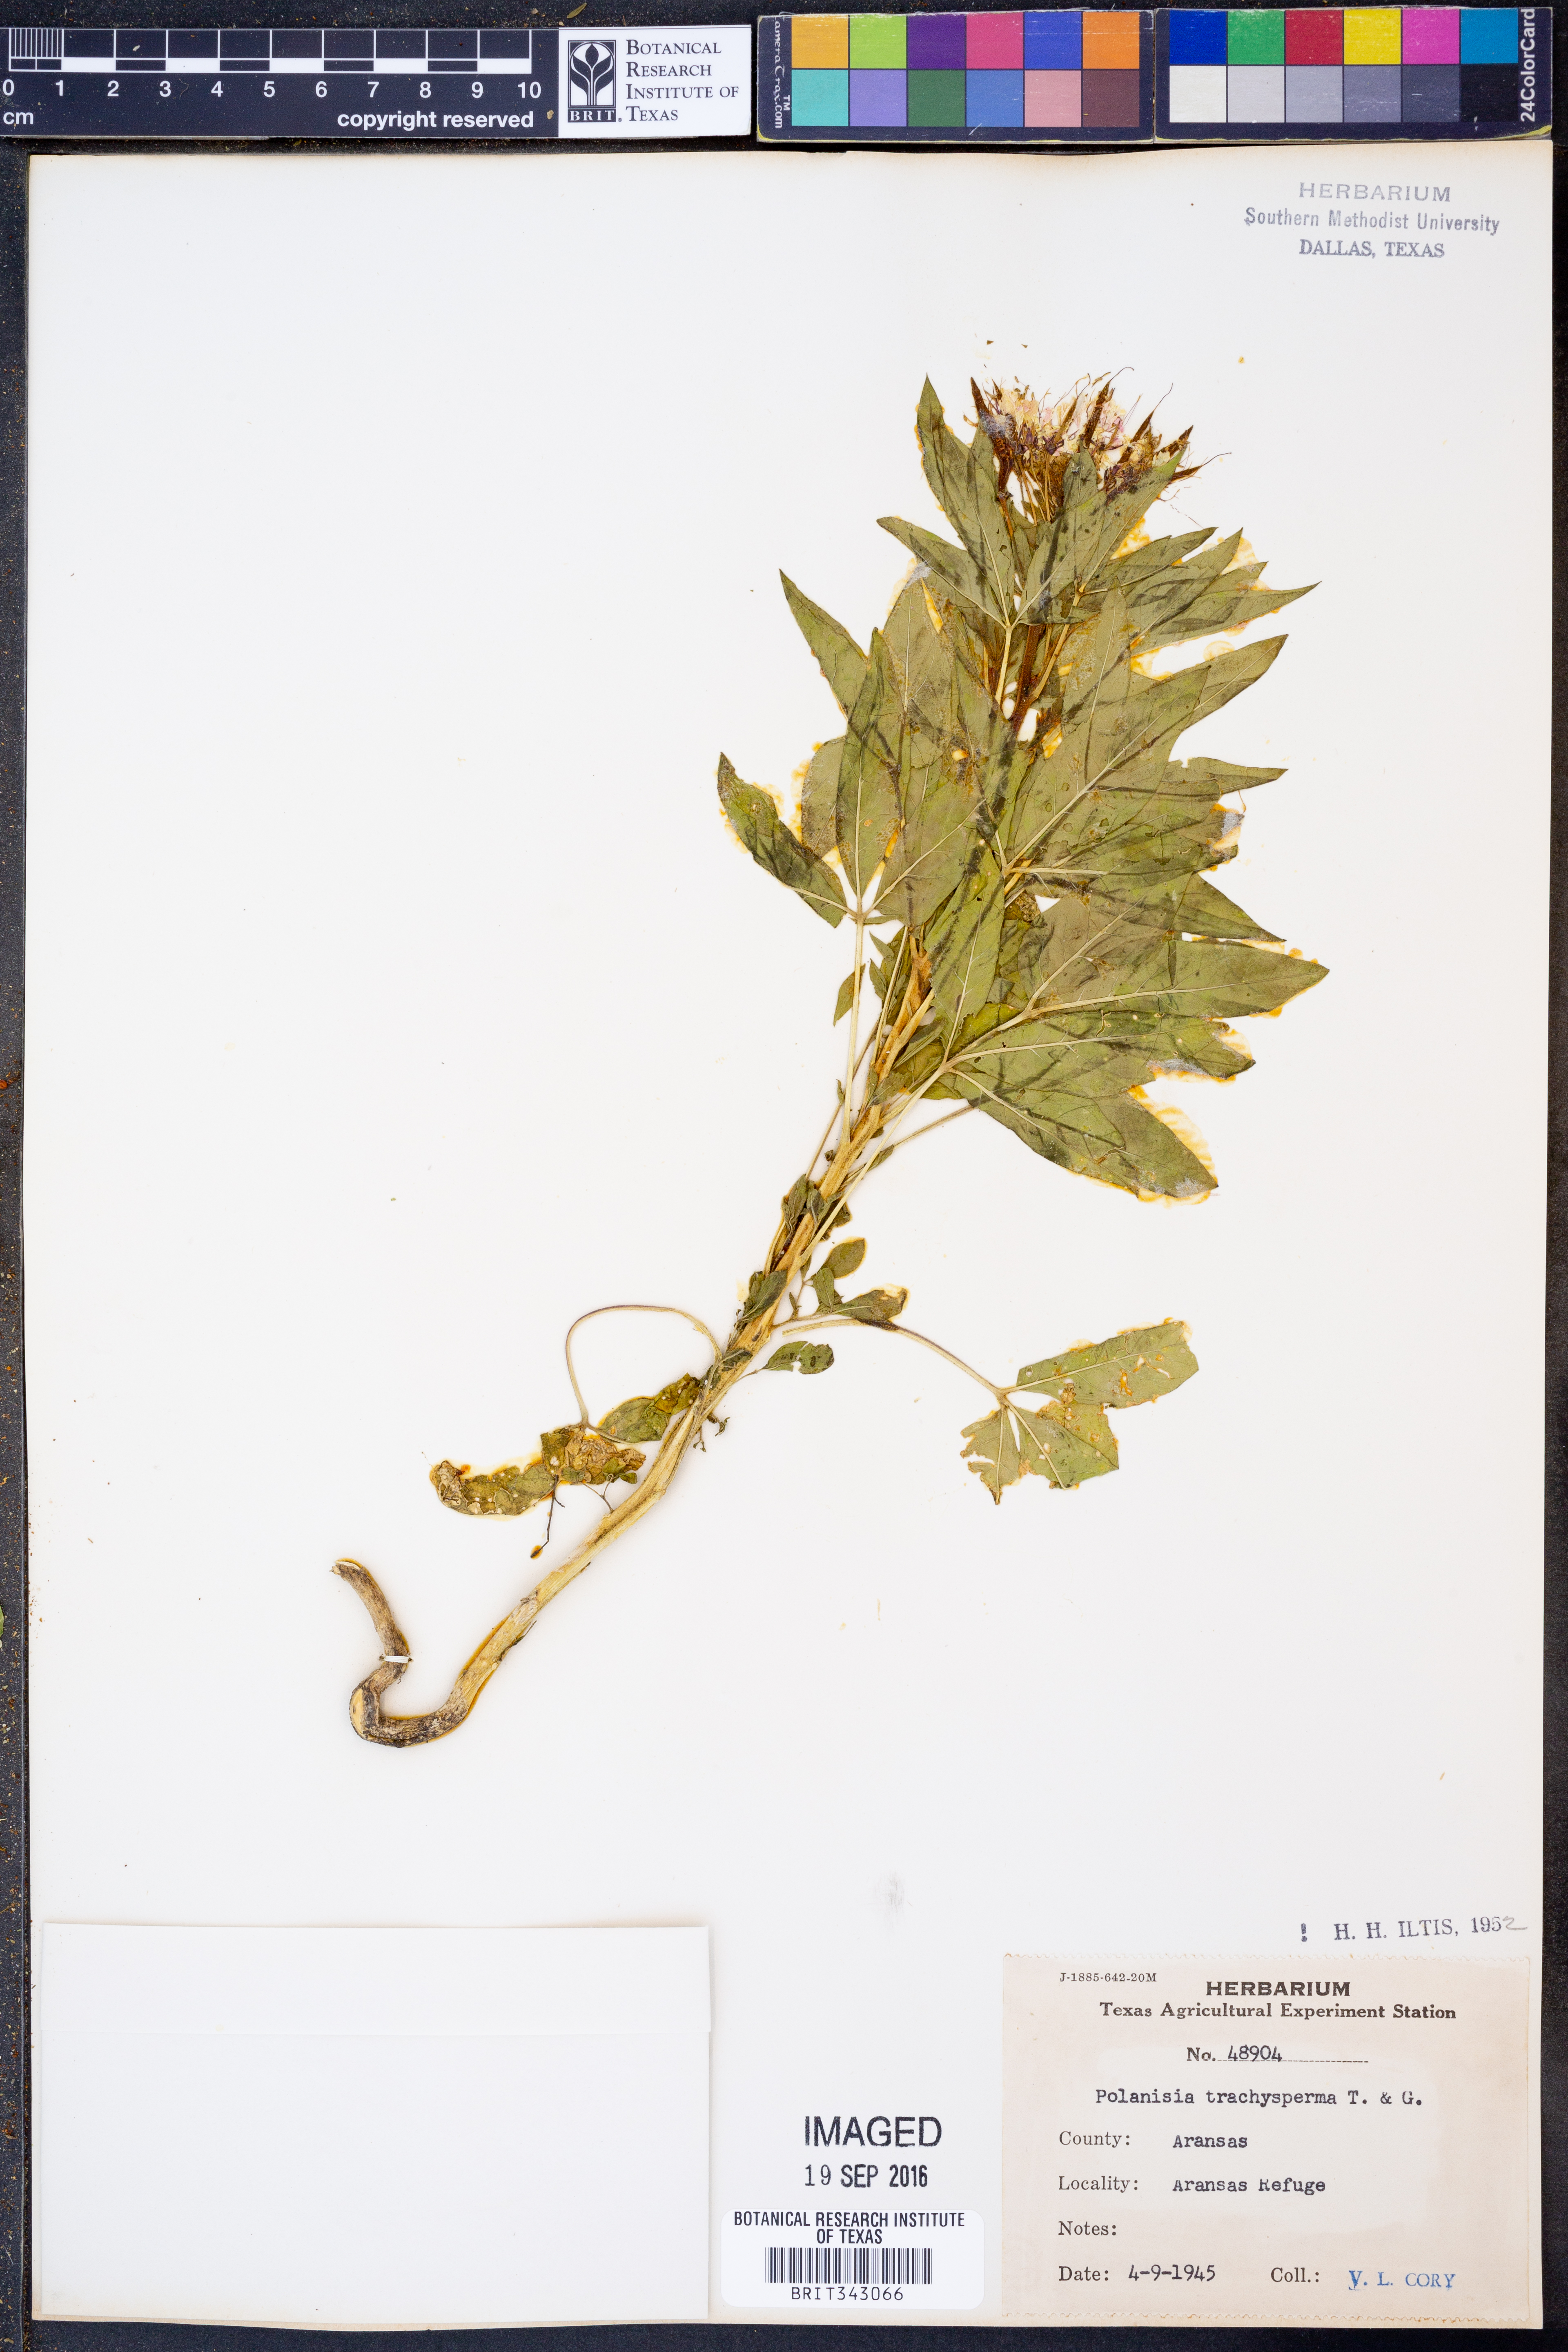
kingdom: Plantae
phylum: Tracheophyta
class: Magnoliopsida
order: Brassicales
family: Cleomaceae
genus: Polanisia
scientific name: Polanisia trachysperma
